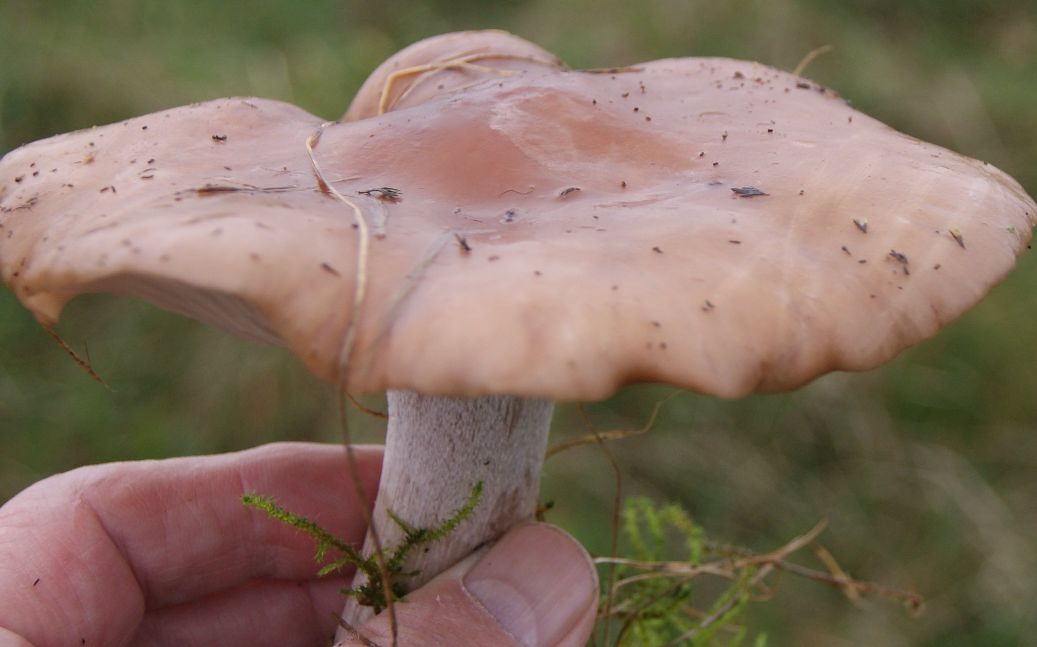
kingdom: Fungi
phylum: Basidiomycota
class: Agaricomycetes
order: Agaricales
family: Tricholomataceae
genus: Lepista
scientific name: Lepista personata
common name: bleg hekseringshat
